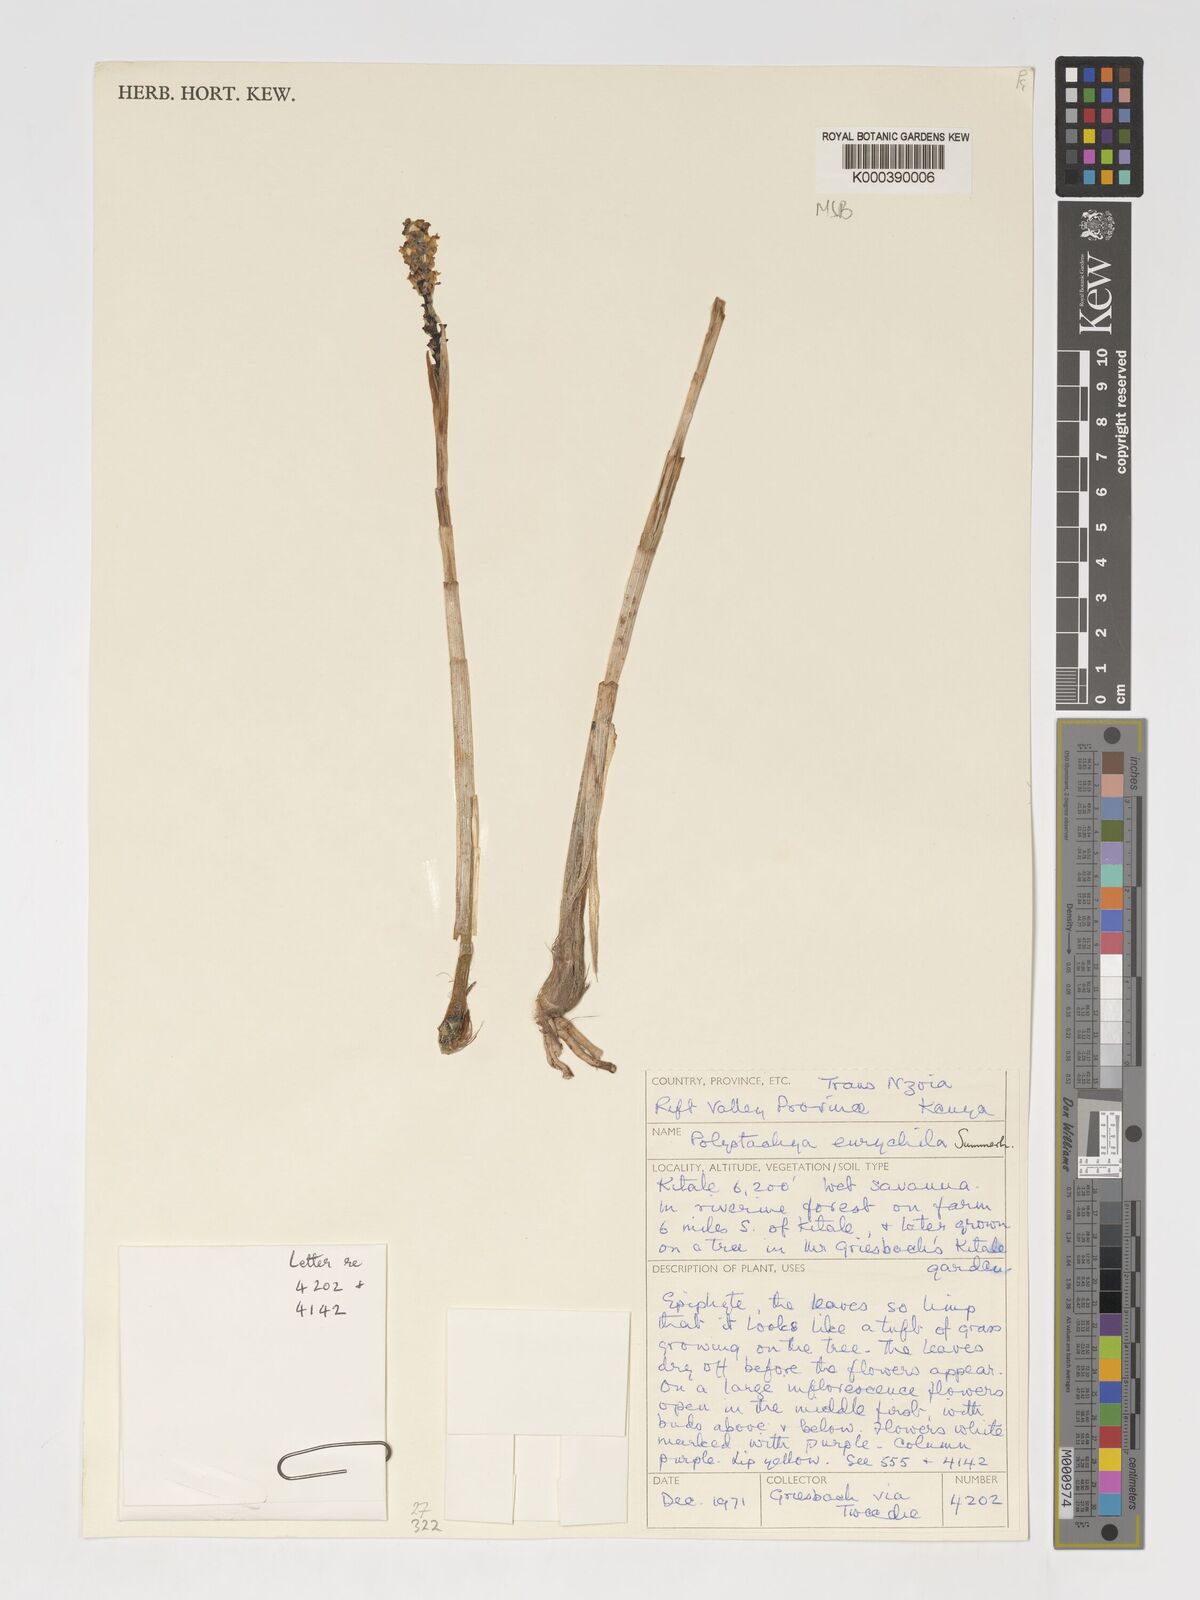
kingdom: Plantae
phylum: Tracheophyta
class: Liliopsida
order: Asparagales
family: Orchidaceae
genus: Polystachya
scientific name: Polystachya eurychila
